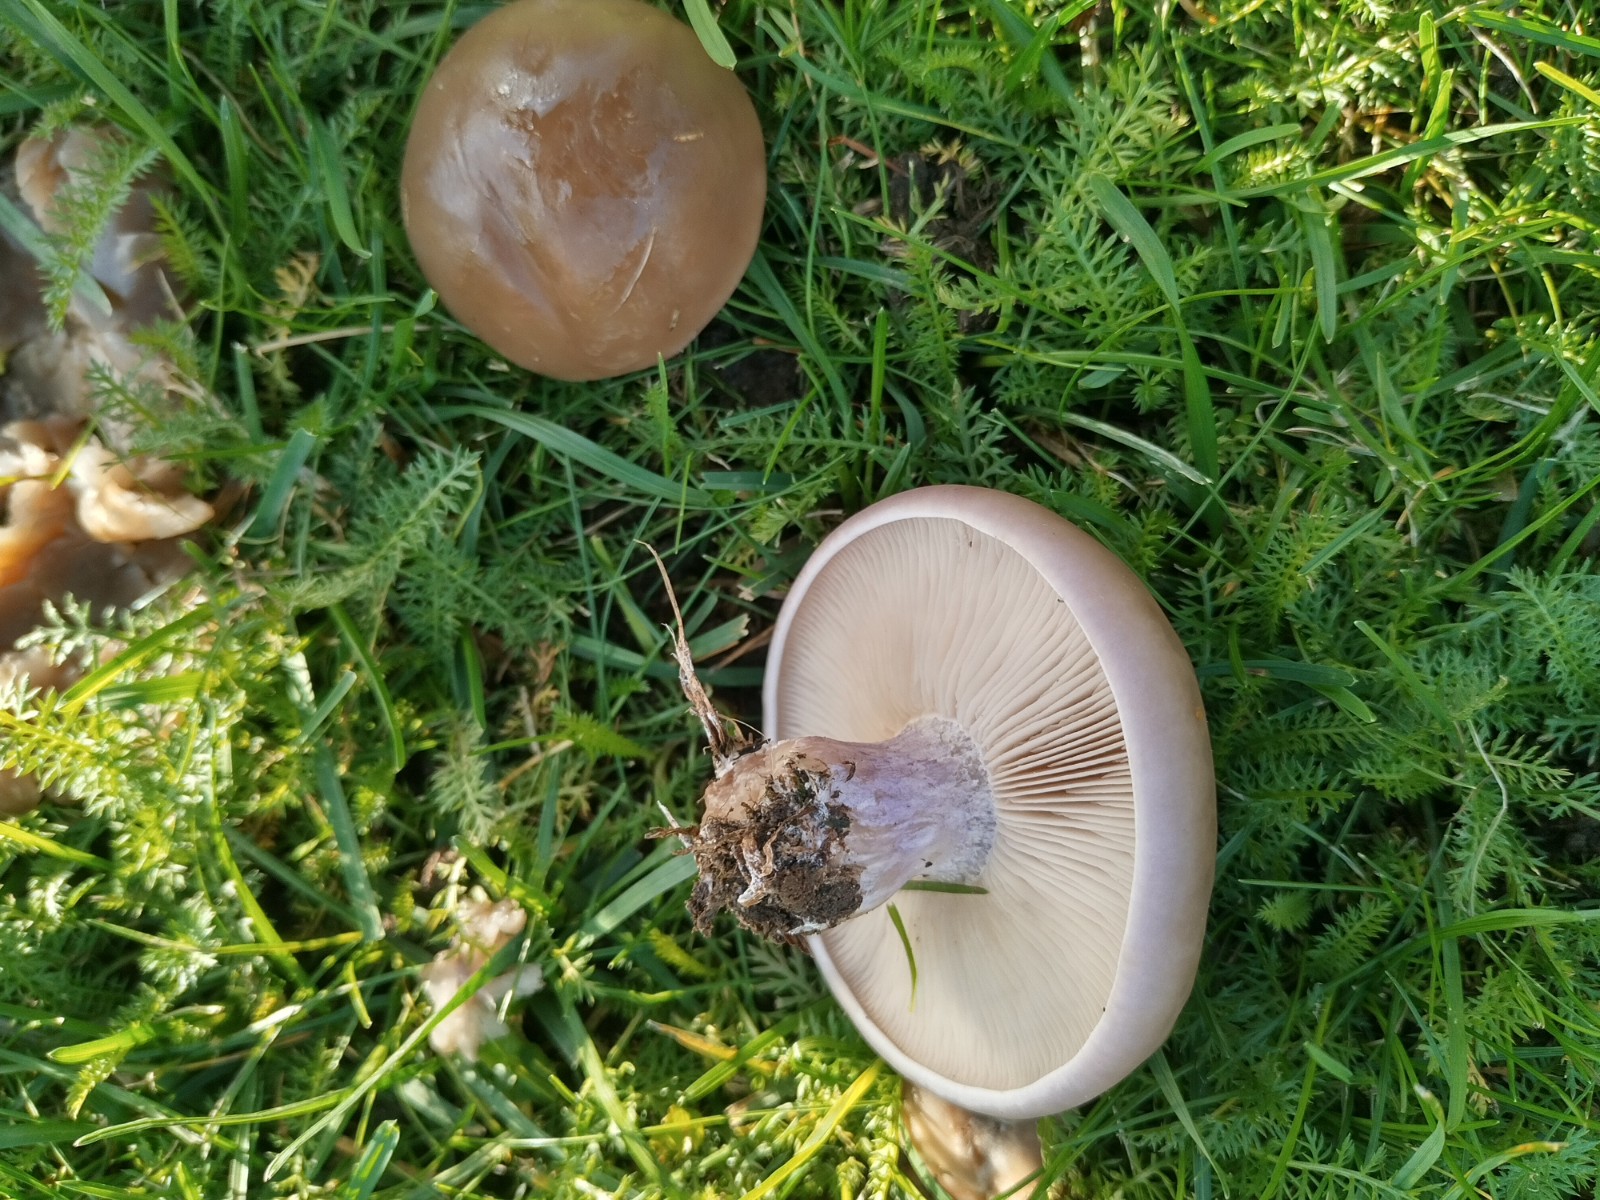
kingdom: Fungi
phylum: Basidiomycota
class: Agaricomycetes
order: Agaricales
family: Tricholomataceae
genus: Lepista
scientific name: Lepista personata
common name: bleg hekseringshat
